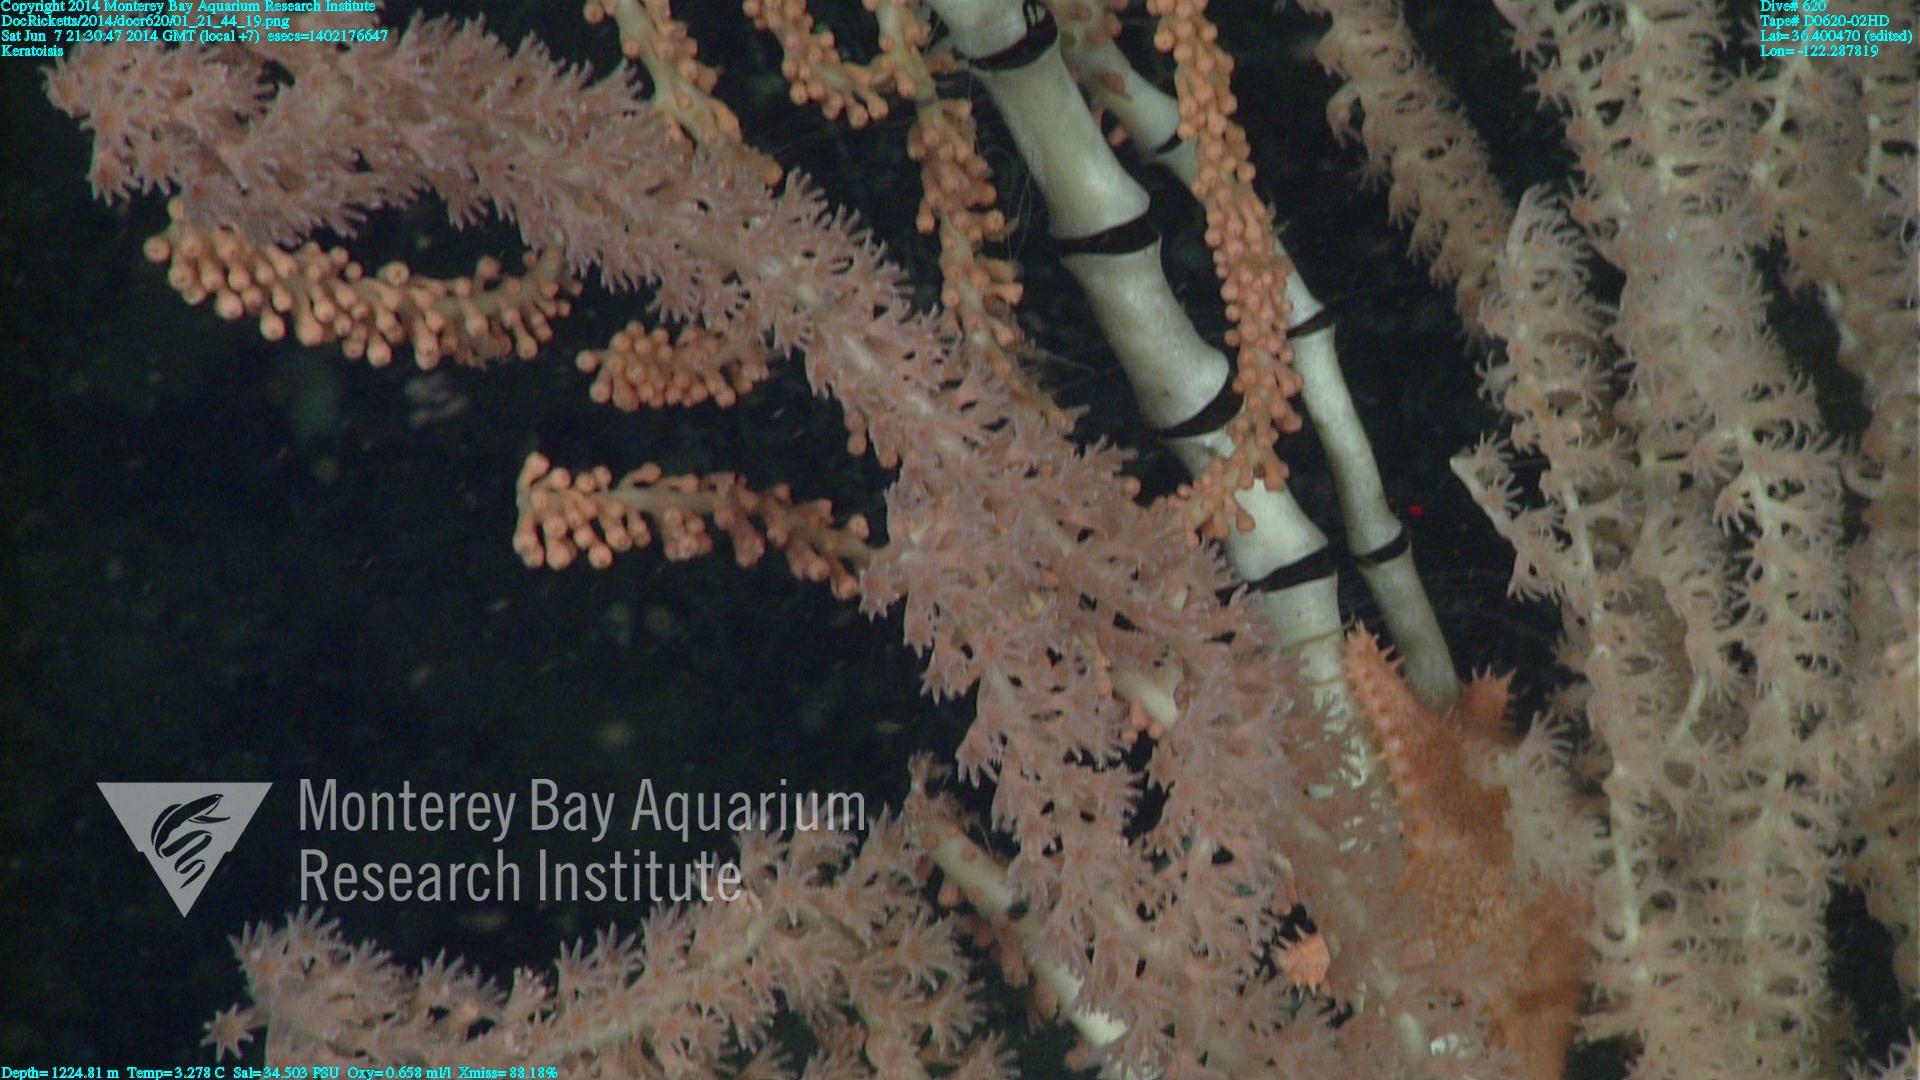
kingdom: Animalia
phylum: Cnidaria
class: Anthozoa
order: Scleralcyonacea
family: Keratoisididae
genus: Keratoisis
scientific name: Keratoisis
